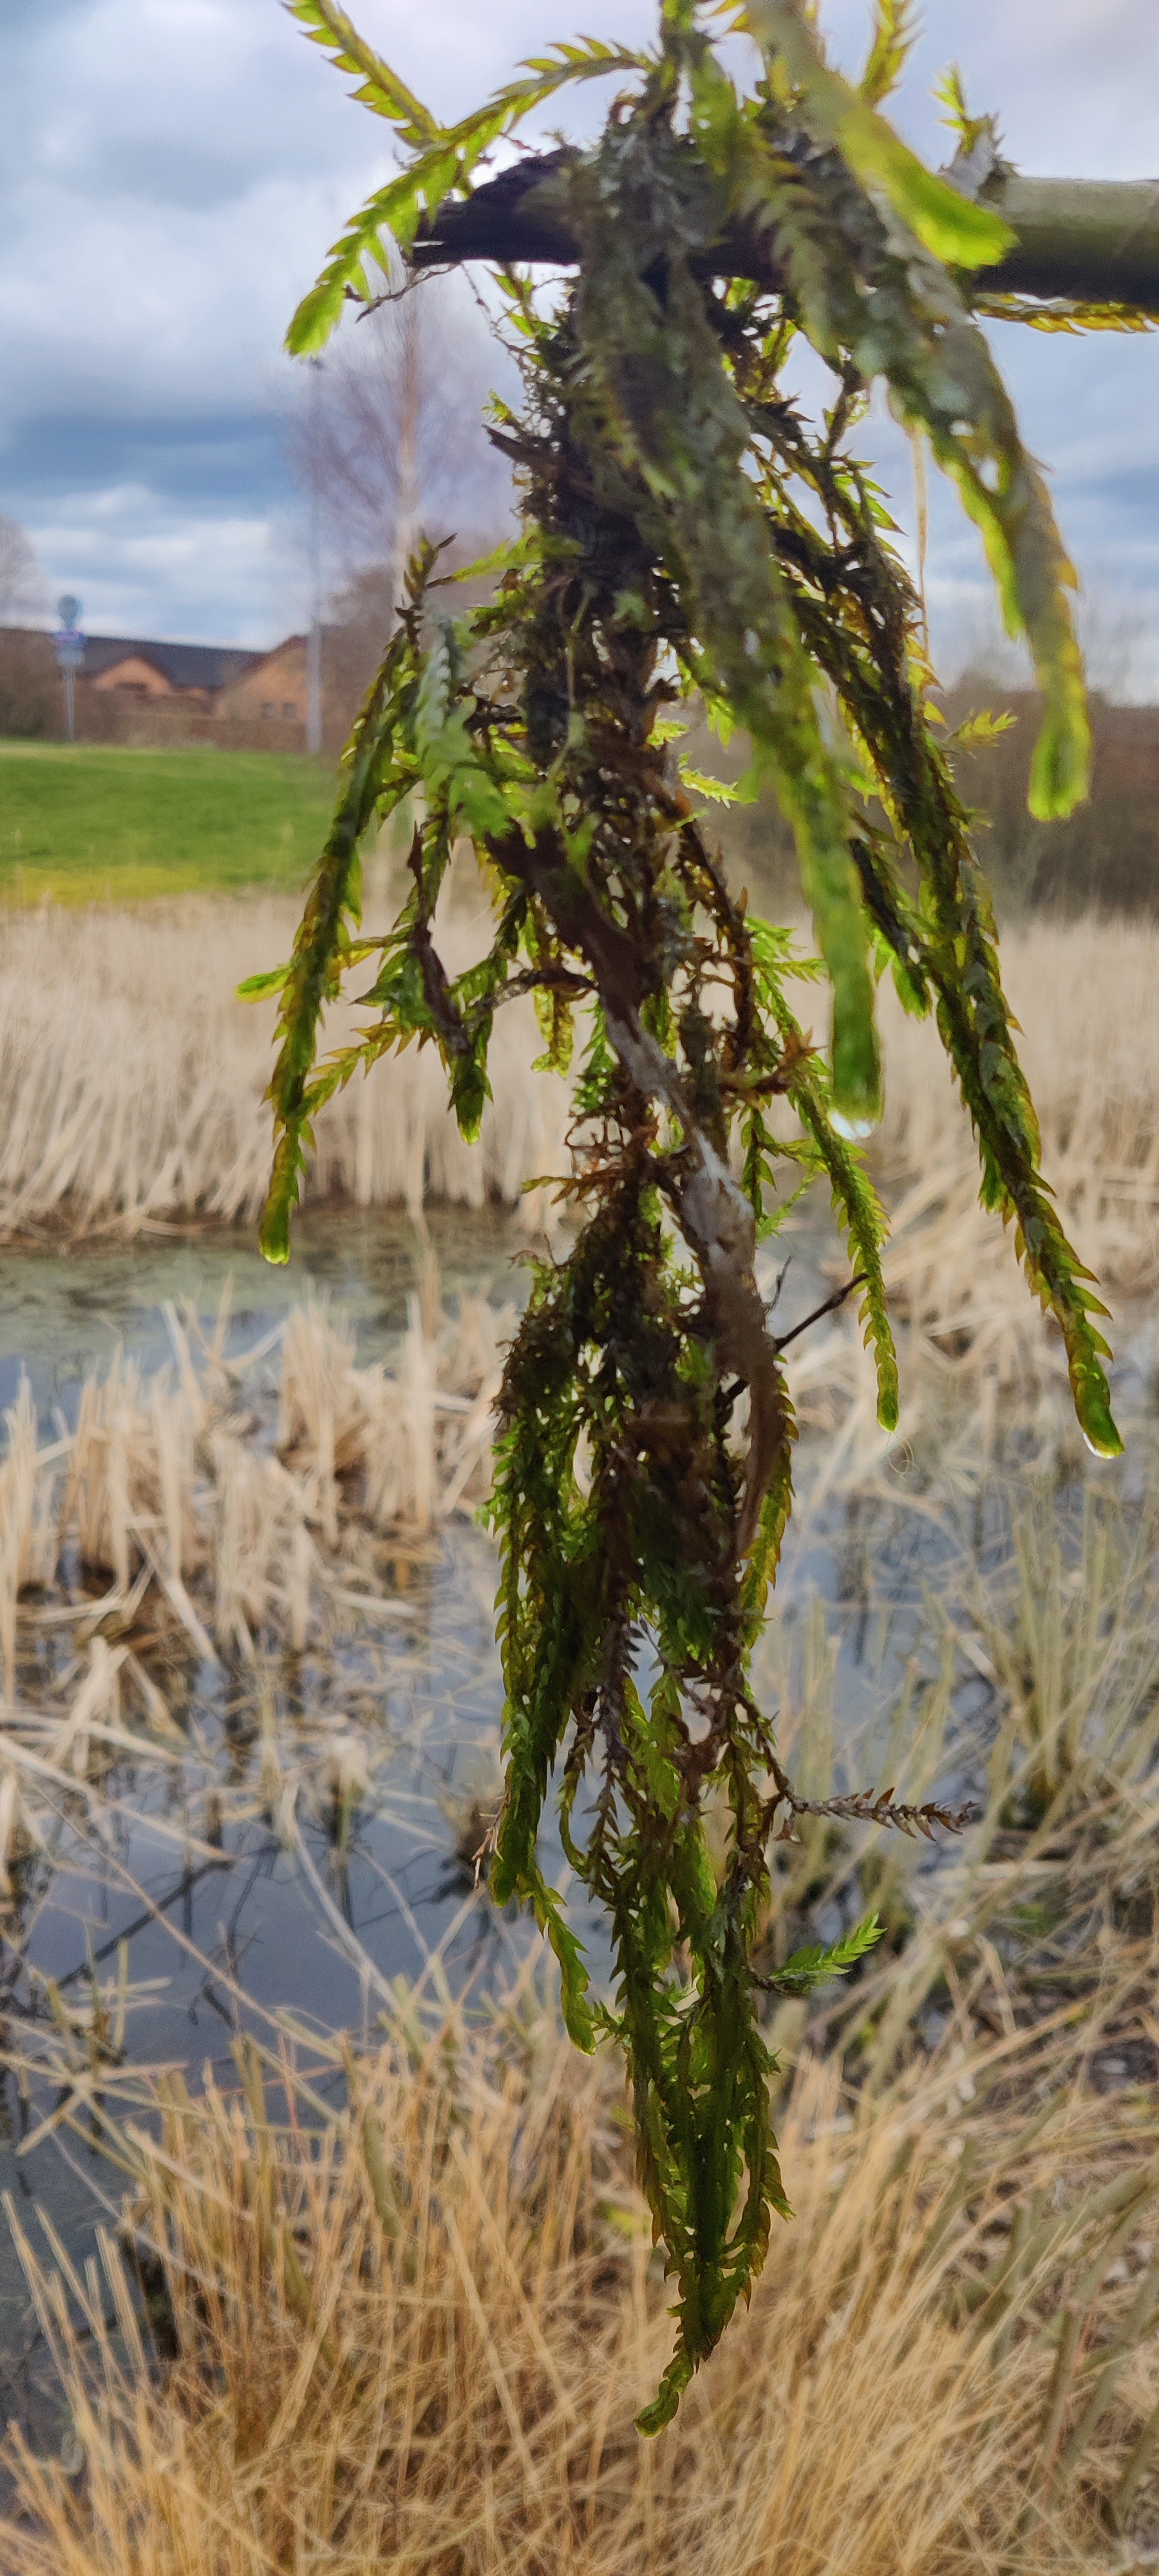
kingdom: Plantae
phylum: Bryophyta
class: Bryopsida
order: Hypnales
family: Fontinalaceae
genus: Fontinalis
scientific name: Fontinalis antipyretica
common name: Stor kildemos
